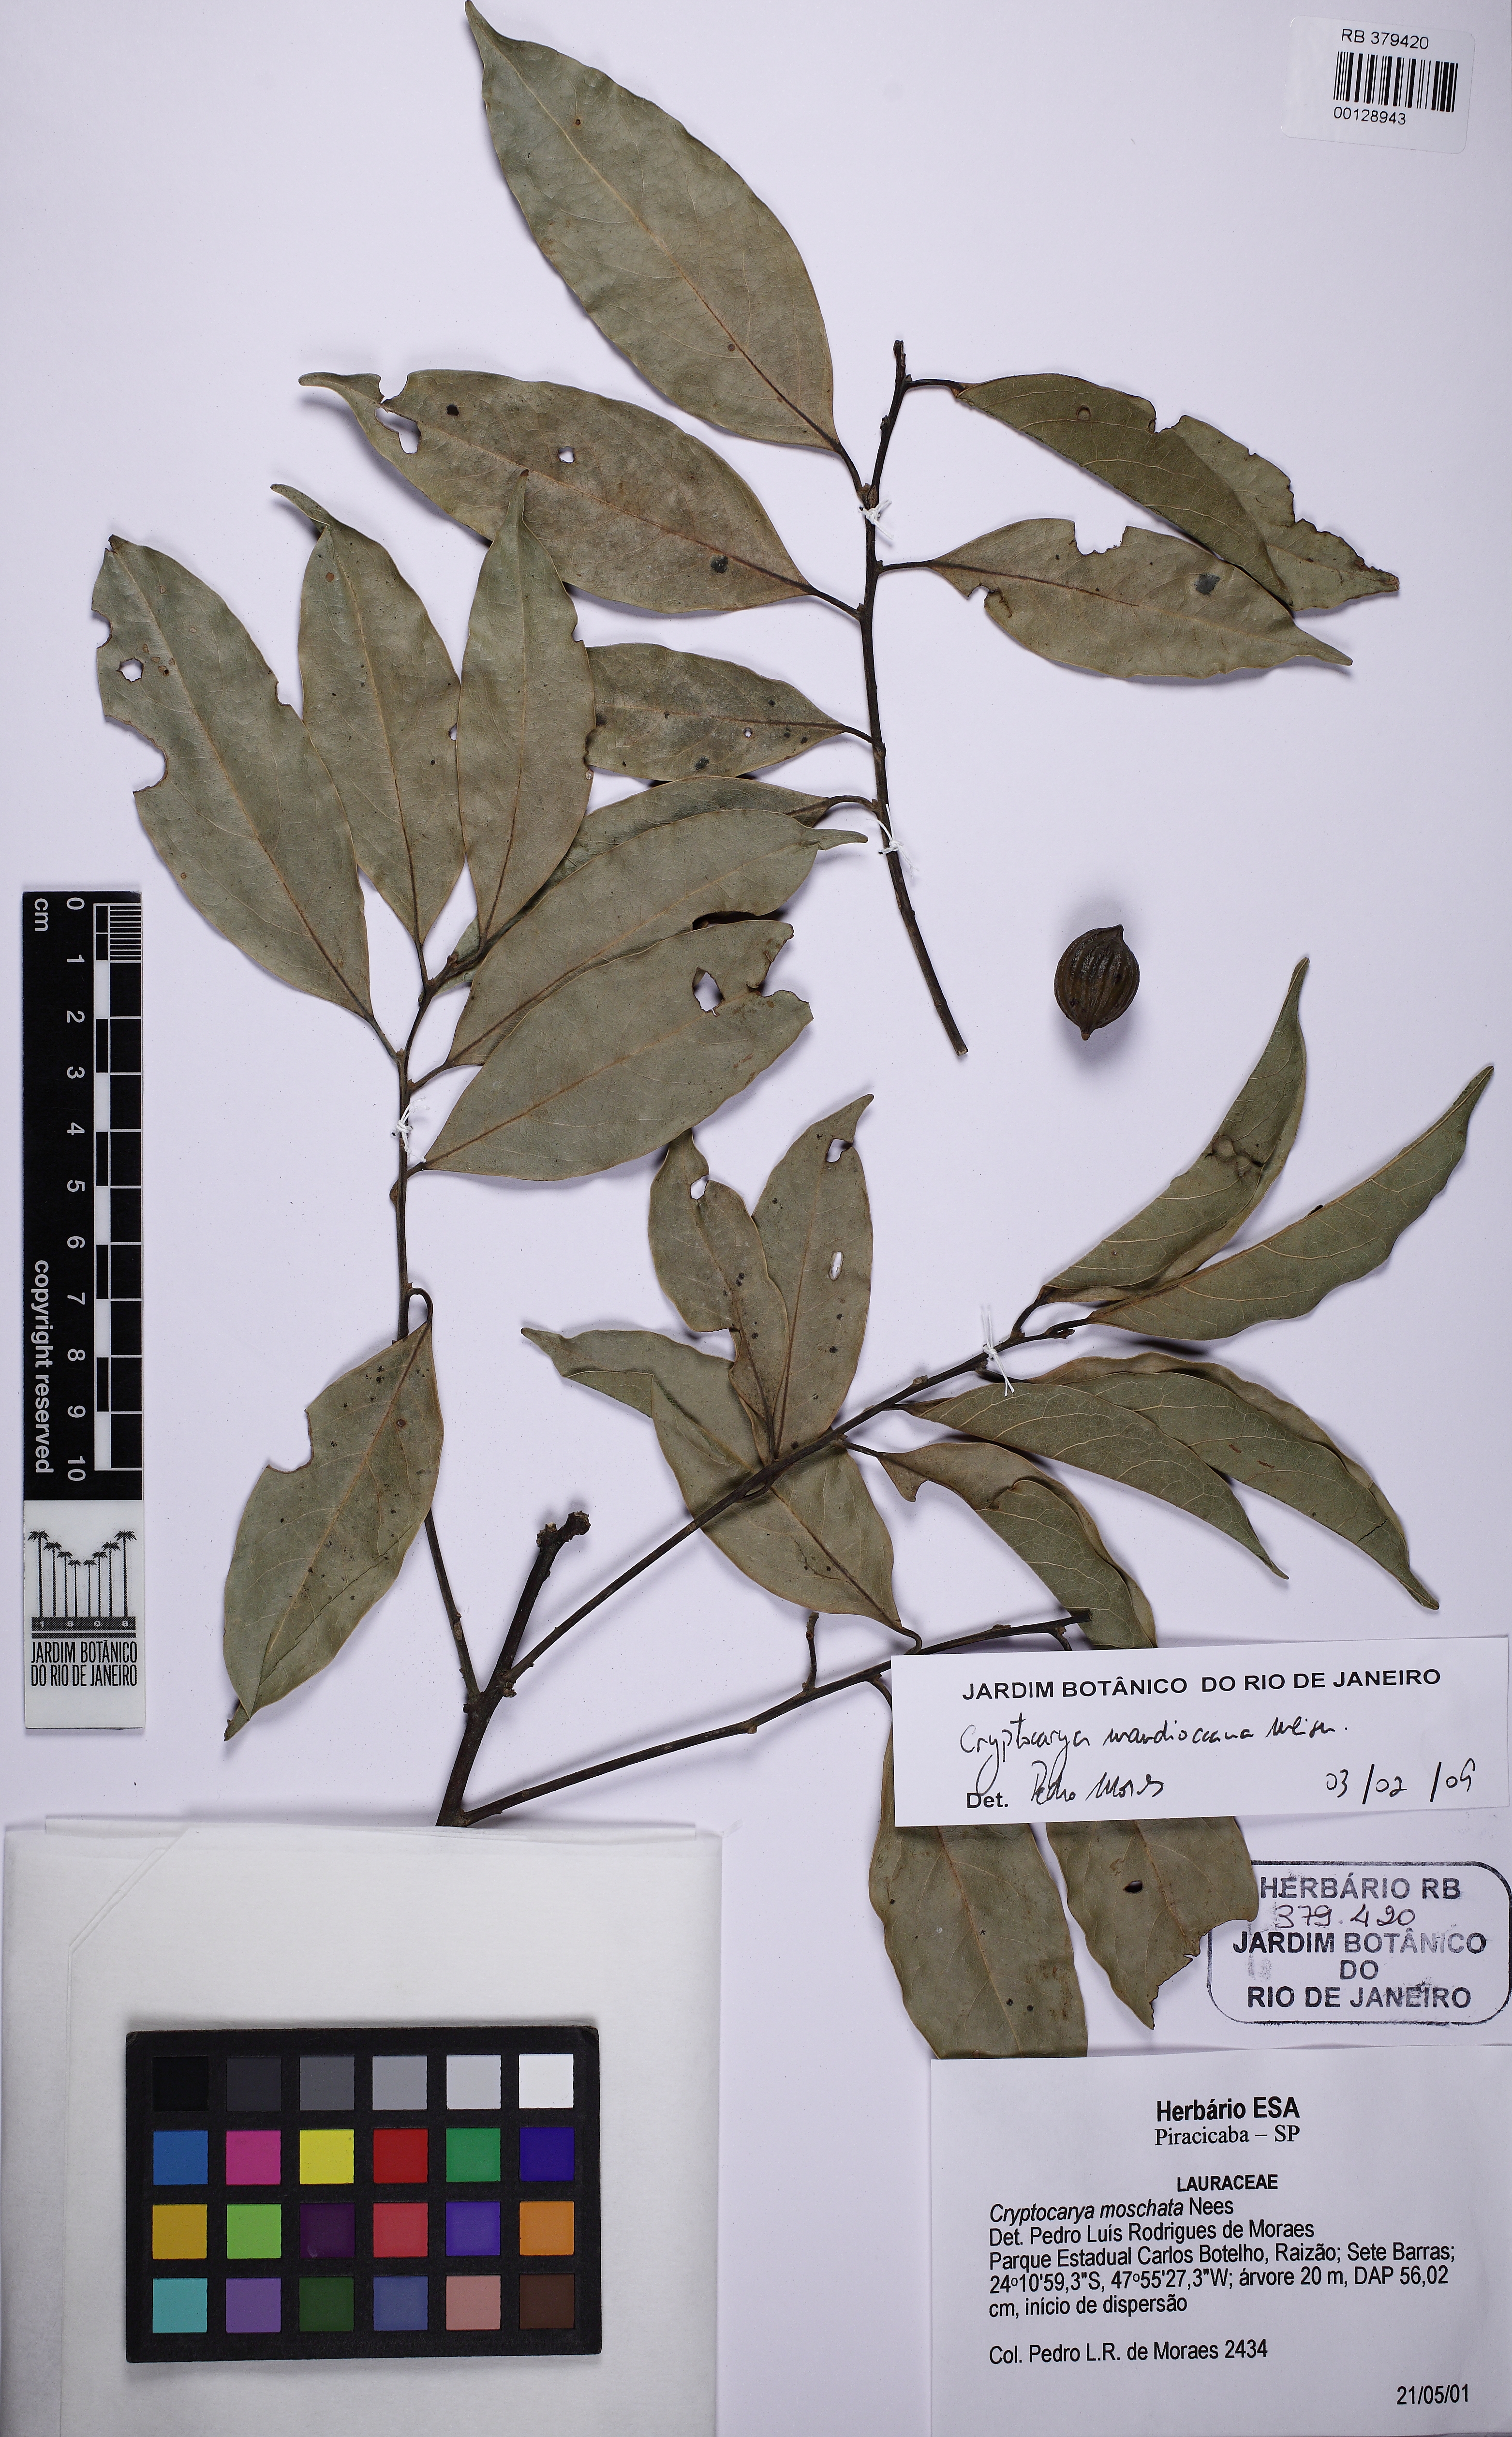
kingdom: Plantae
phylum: Tracheophyta
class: Magnoliopsida
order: Laurales
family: Lauraceae
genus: Cryptocarya
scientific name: Cryptocarya mandioccana
